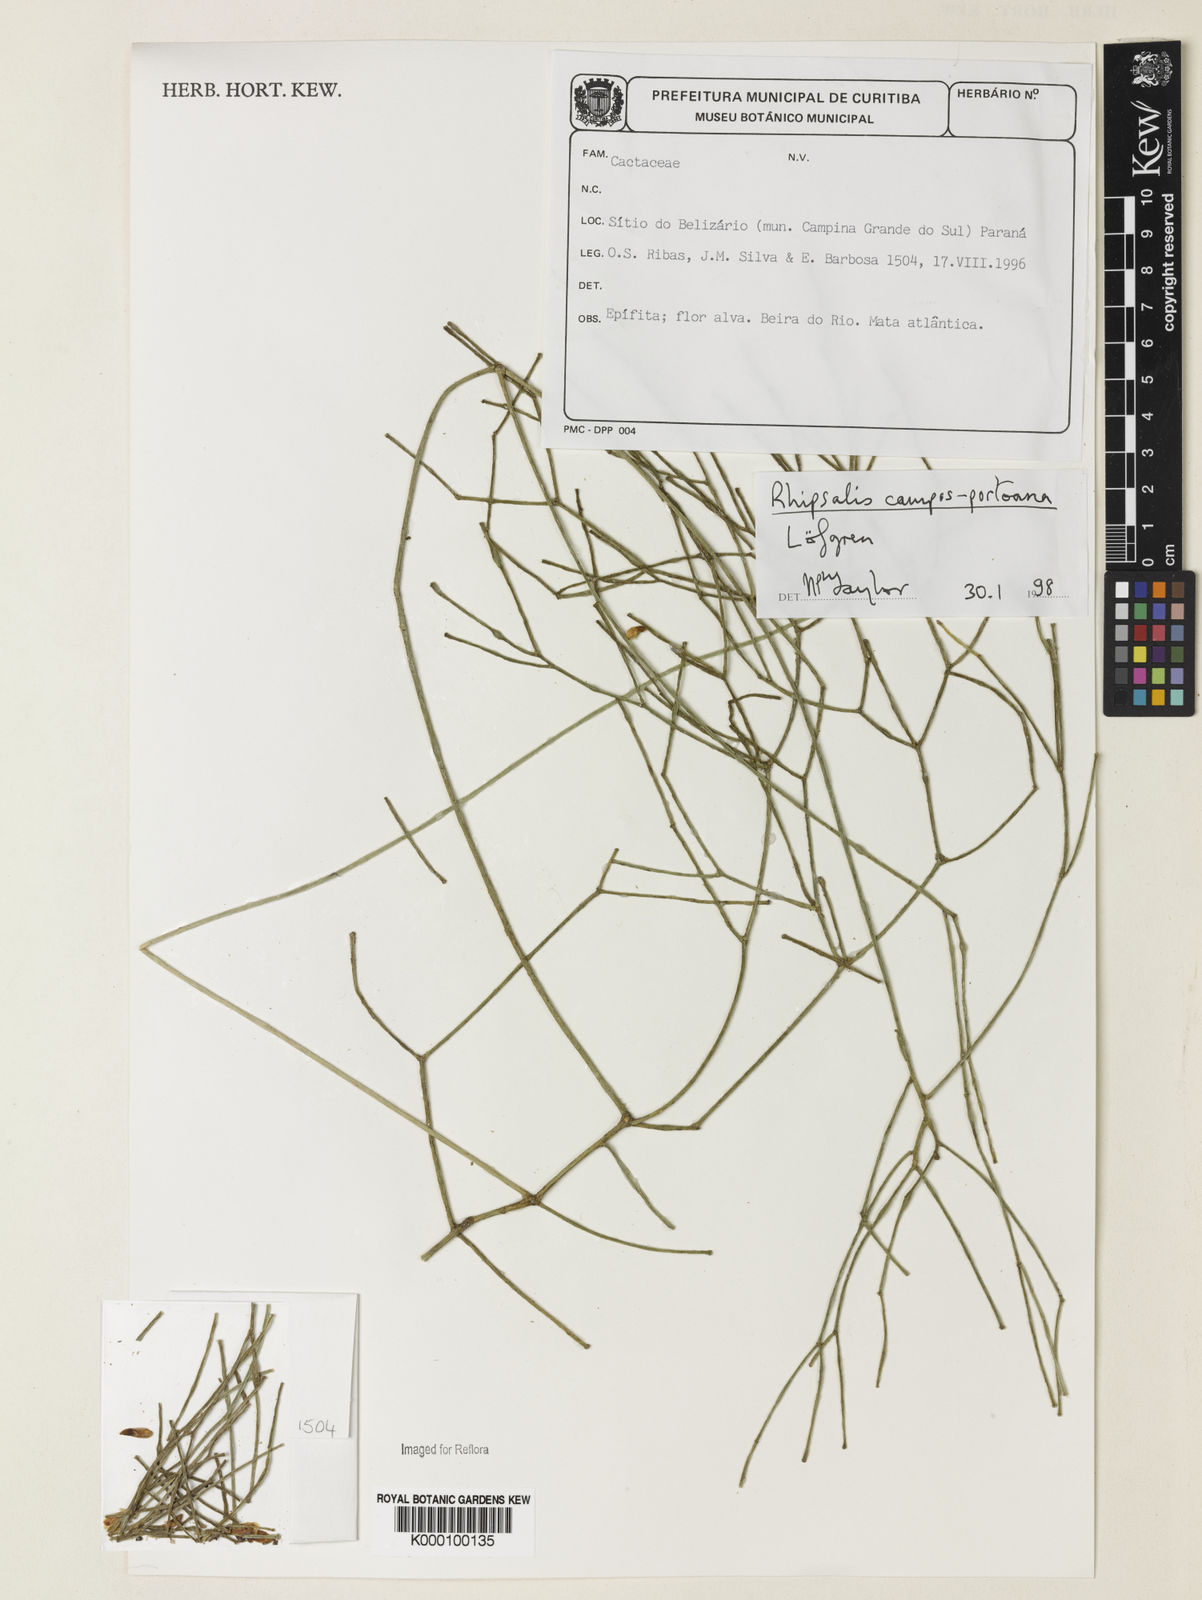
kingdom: Plantae
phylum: Tracheophyta
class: Magnoliopsida
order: Caryophyllales
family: Cactaceae
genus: Rhipsalis
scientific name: Rhipsalis campos-portoana
